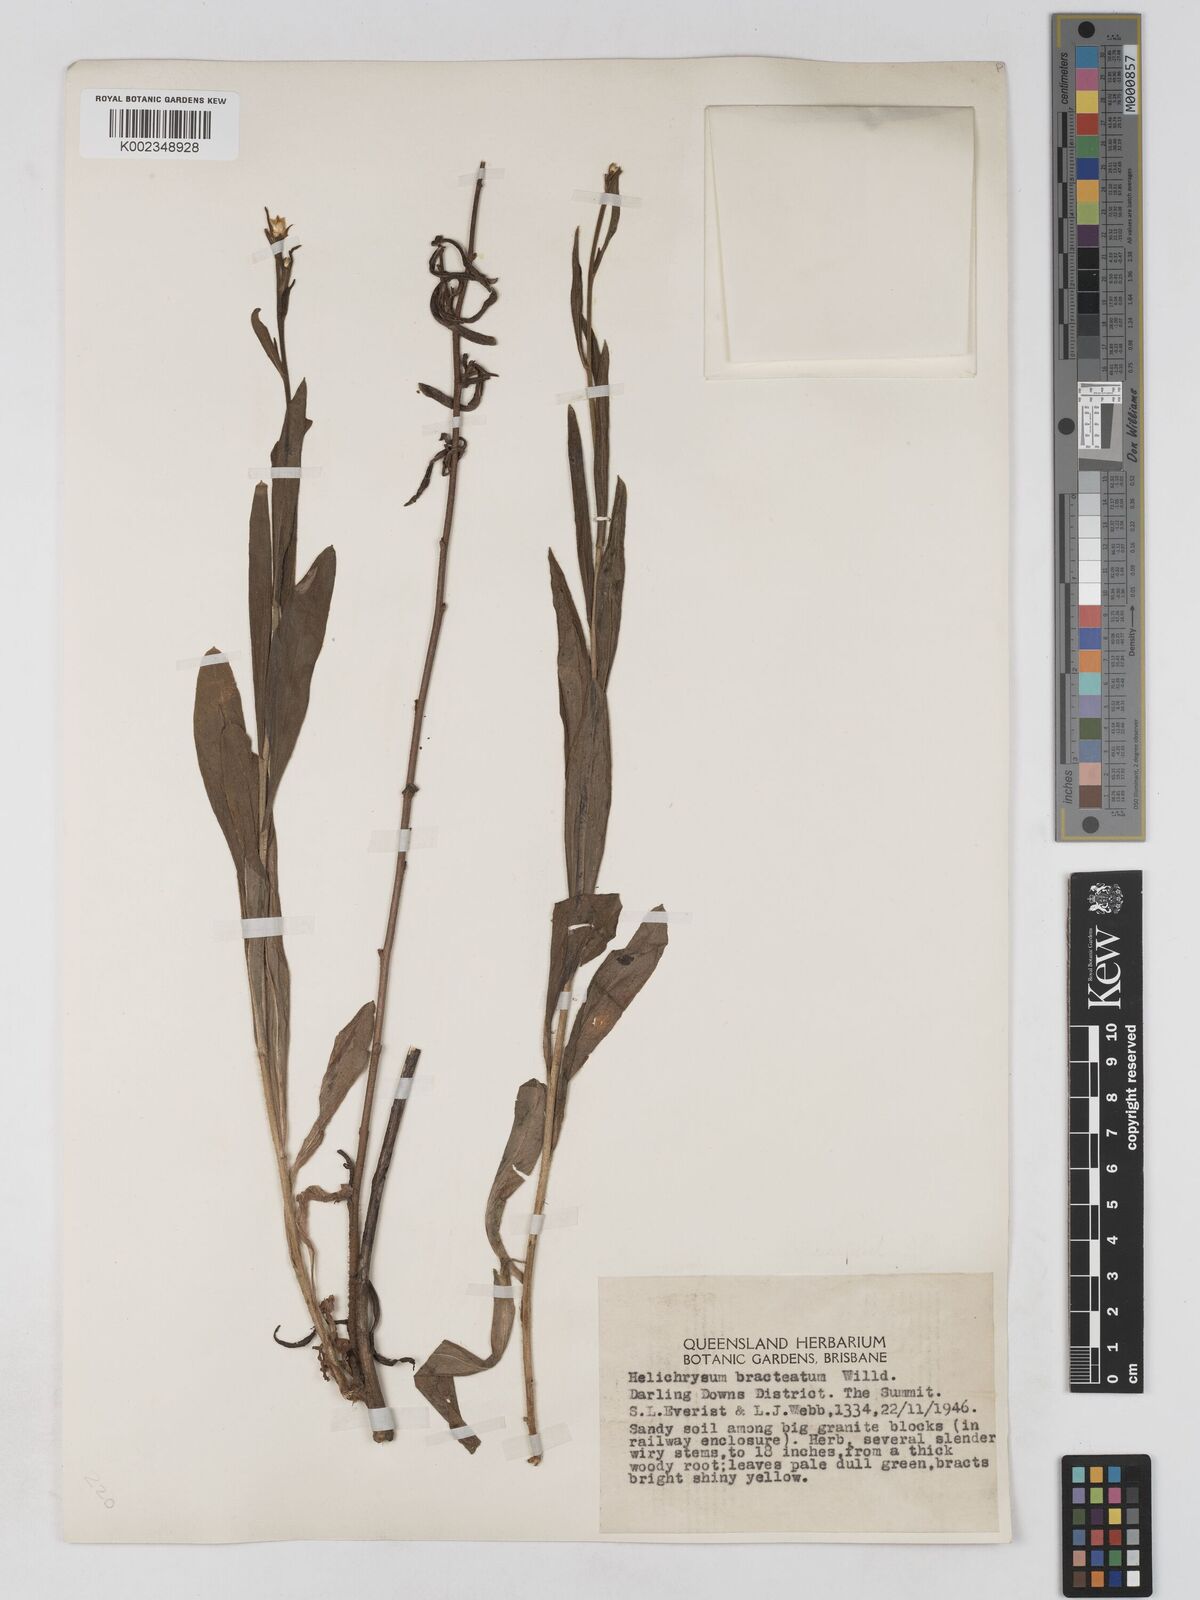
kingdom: Plantae
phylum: Tracheophyta
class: Magnoliopsida
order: Asterales
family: Asteraceae
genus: Xerochrysum
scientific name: Xerochrysum bracteatum
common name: Bracted strawflower
